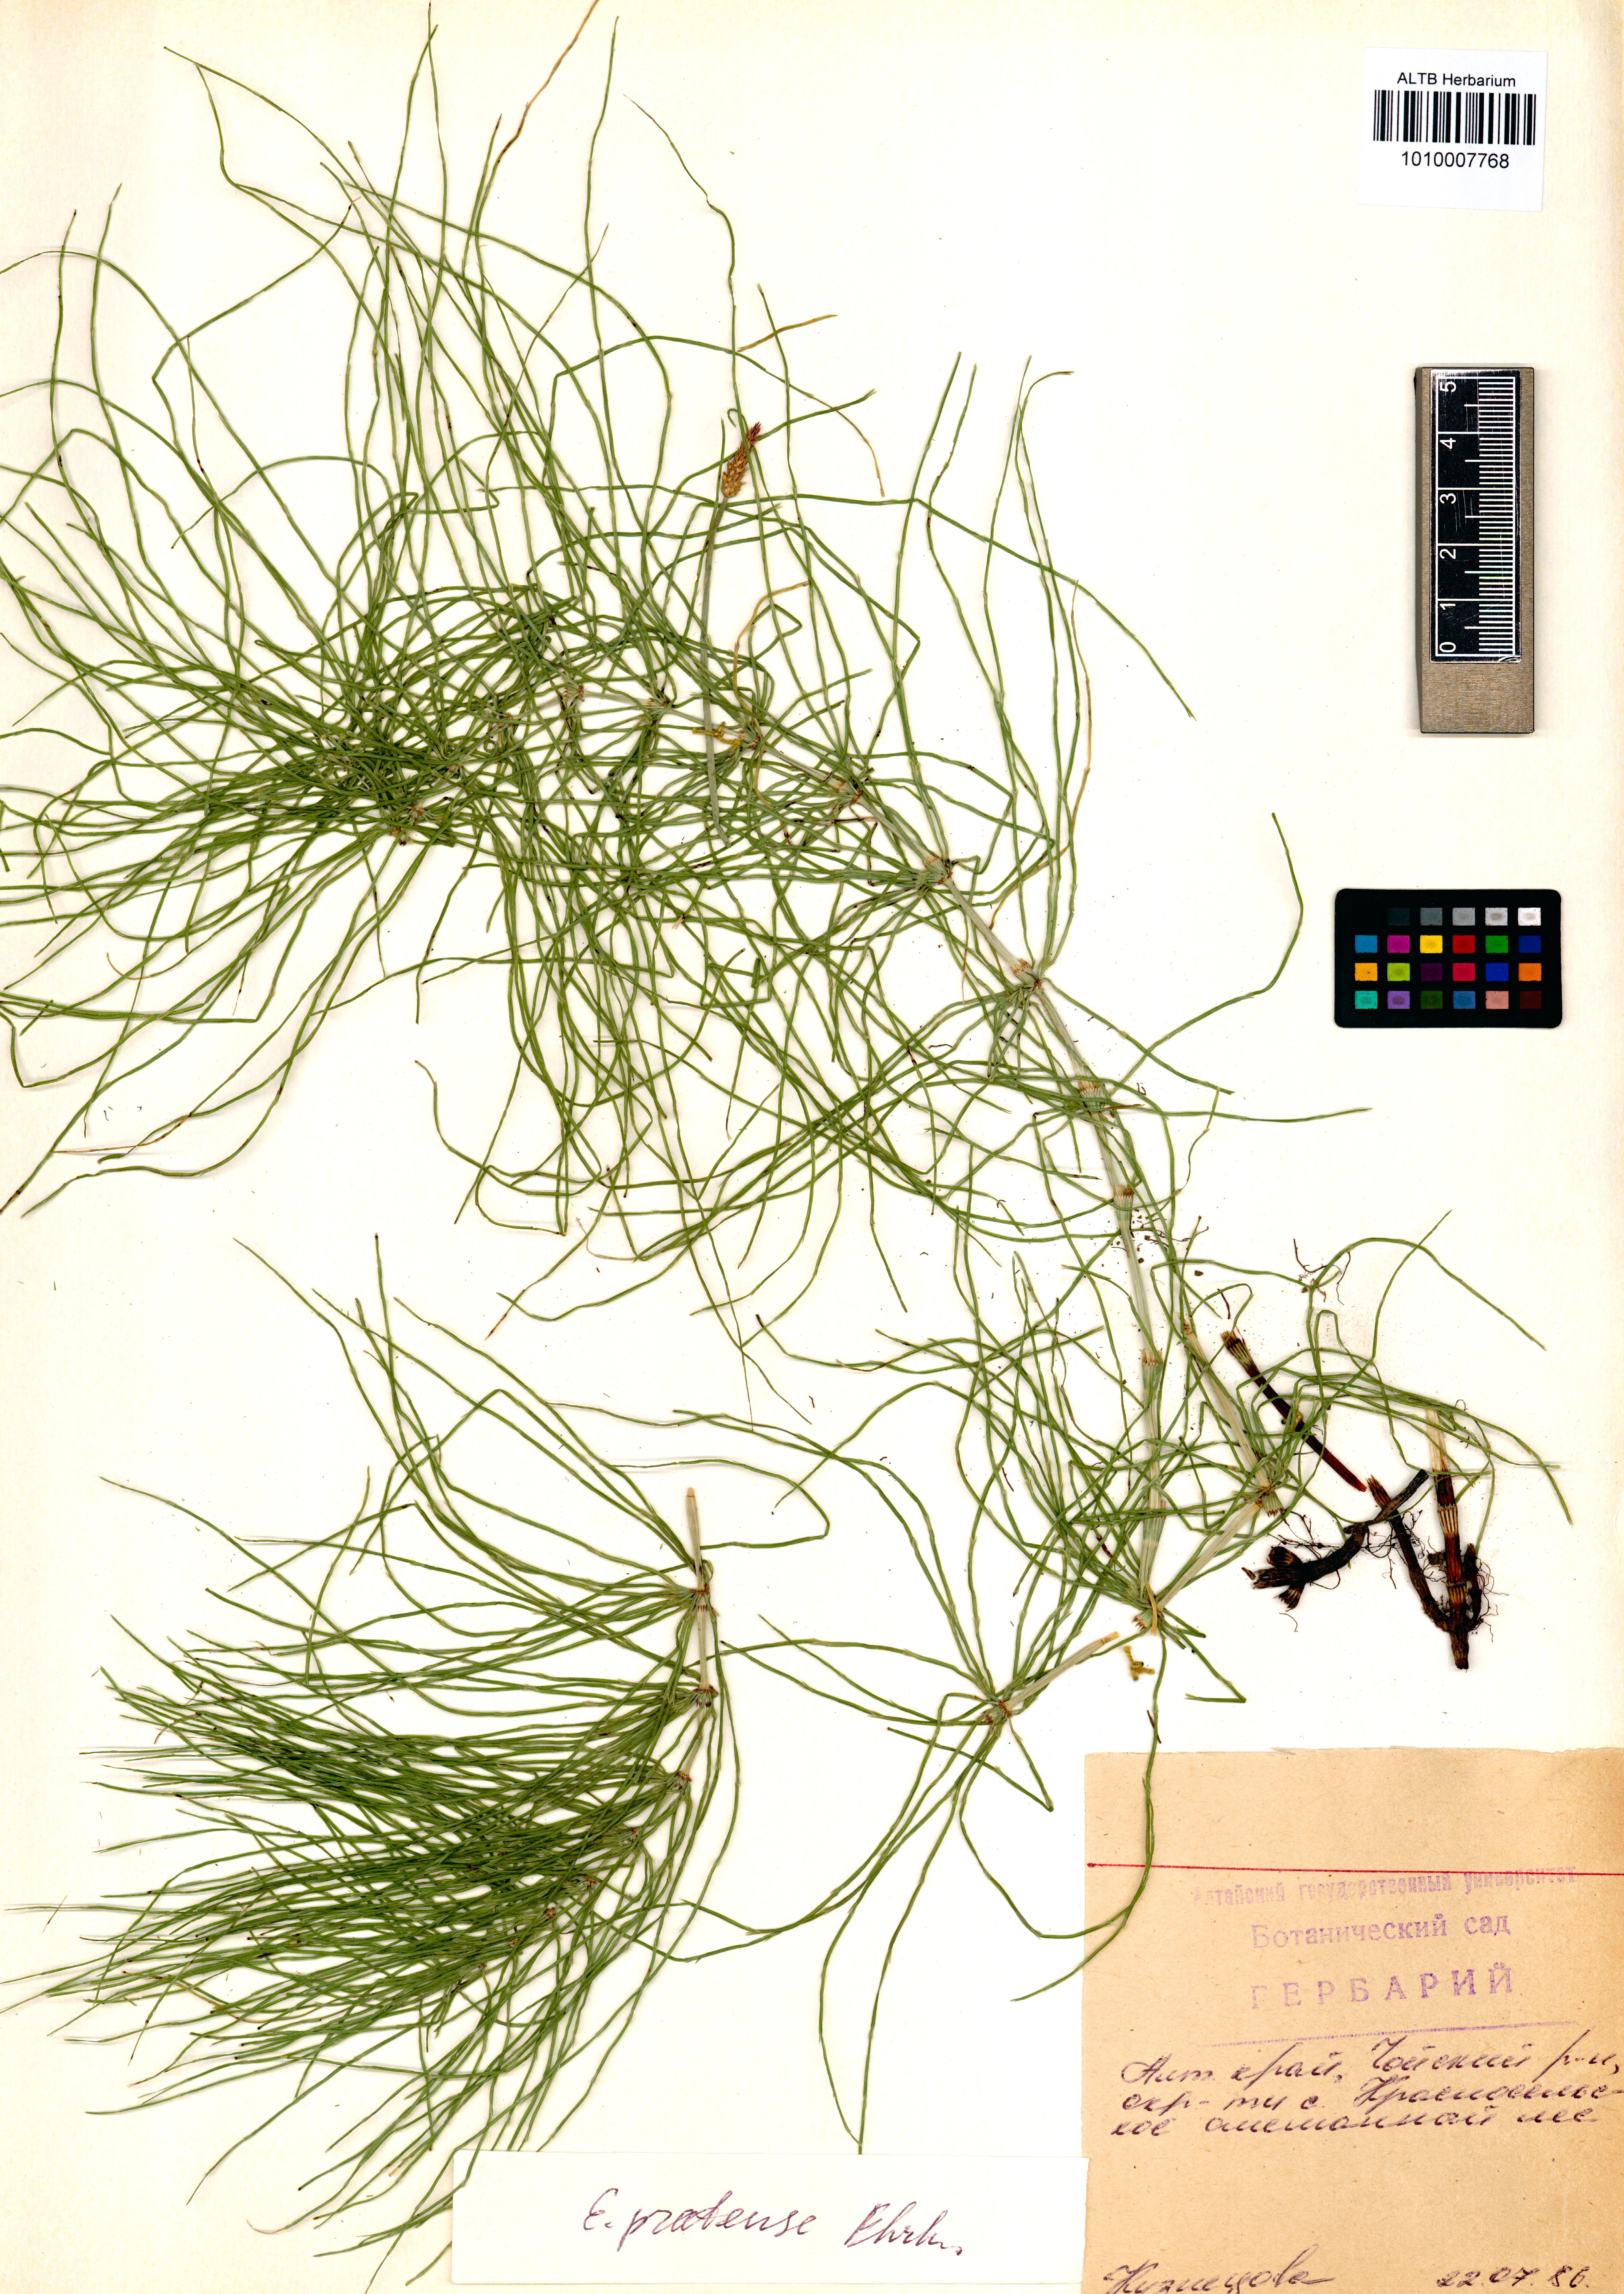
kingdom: Plantae
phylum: Tracheophyta
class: Polypodiopsida
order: Equisetales
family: Equisetaceae
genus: Equisetum
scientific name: Equisetum pratense
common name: Meadow horsetail
